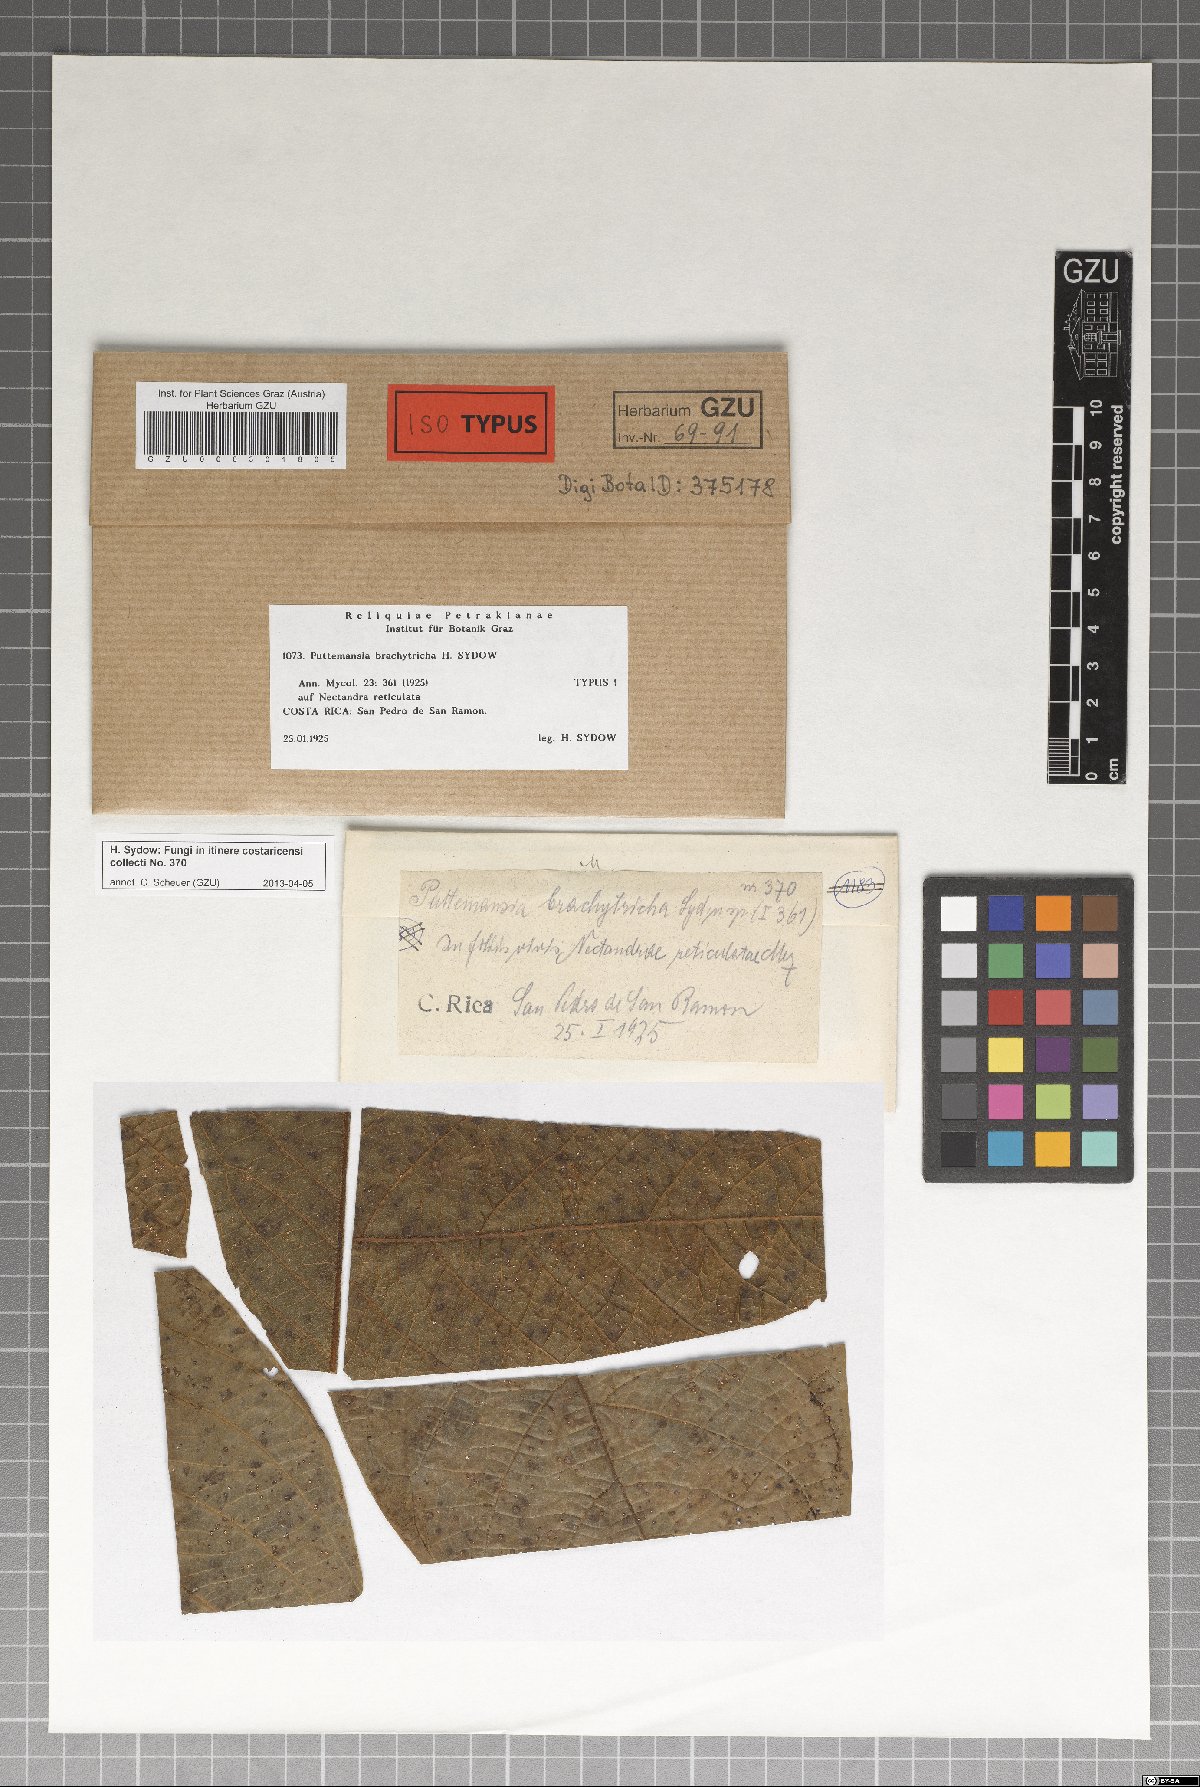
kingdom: Fungi
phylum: Ascomycota
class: Dothideomycetes
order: Tubeufiales
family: Tubeufiaceae
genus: Puttemansia
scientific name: Puttemansia brachytricha
